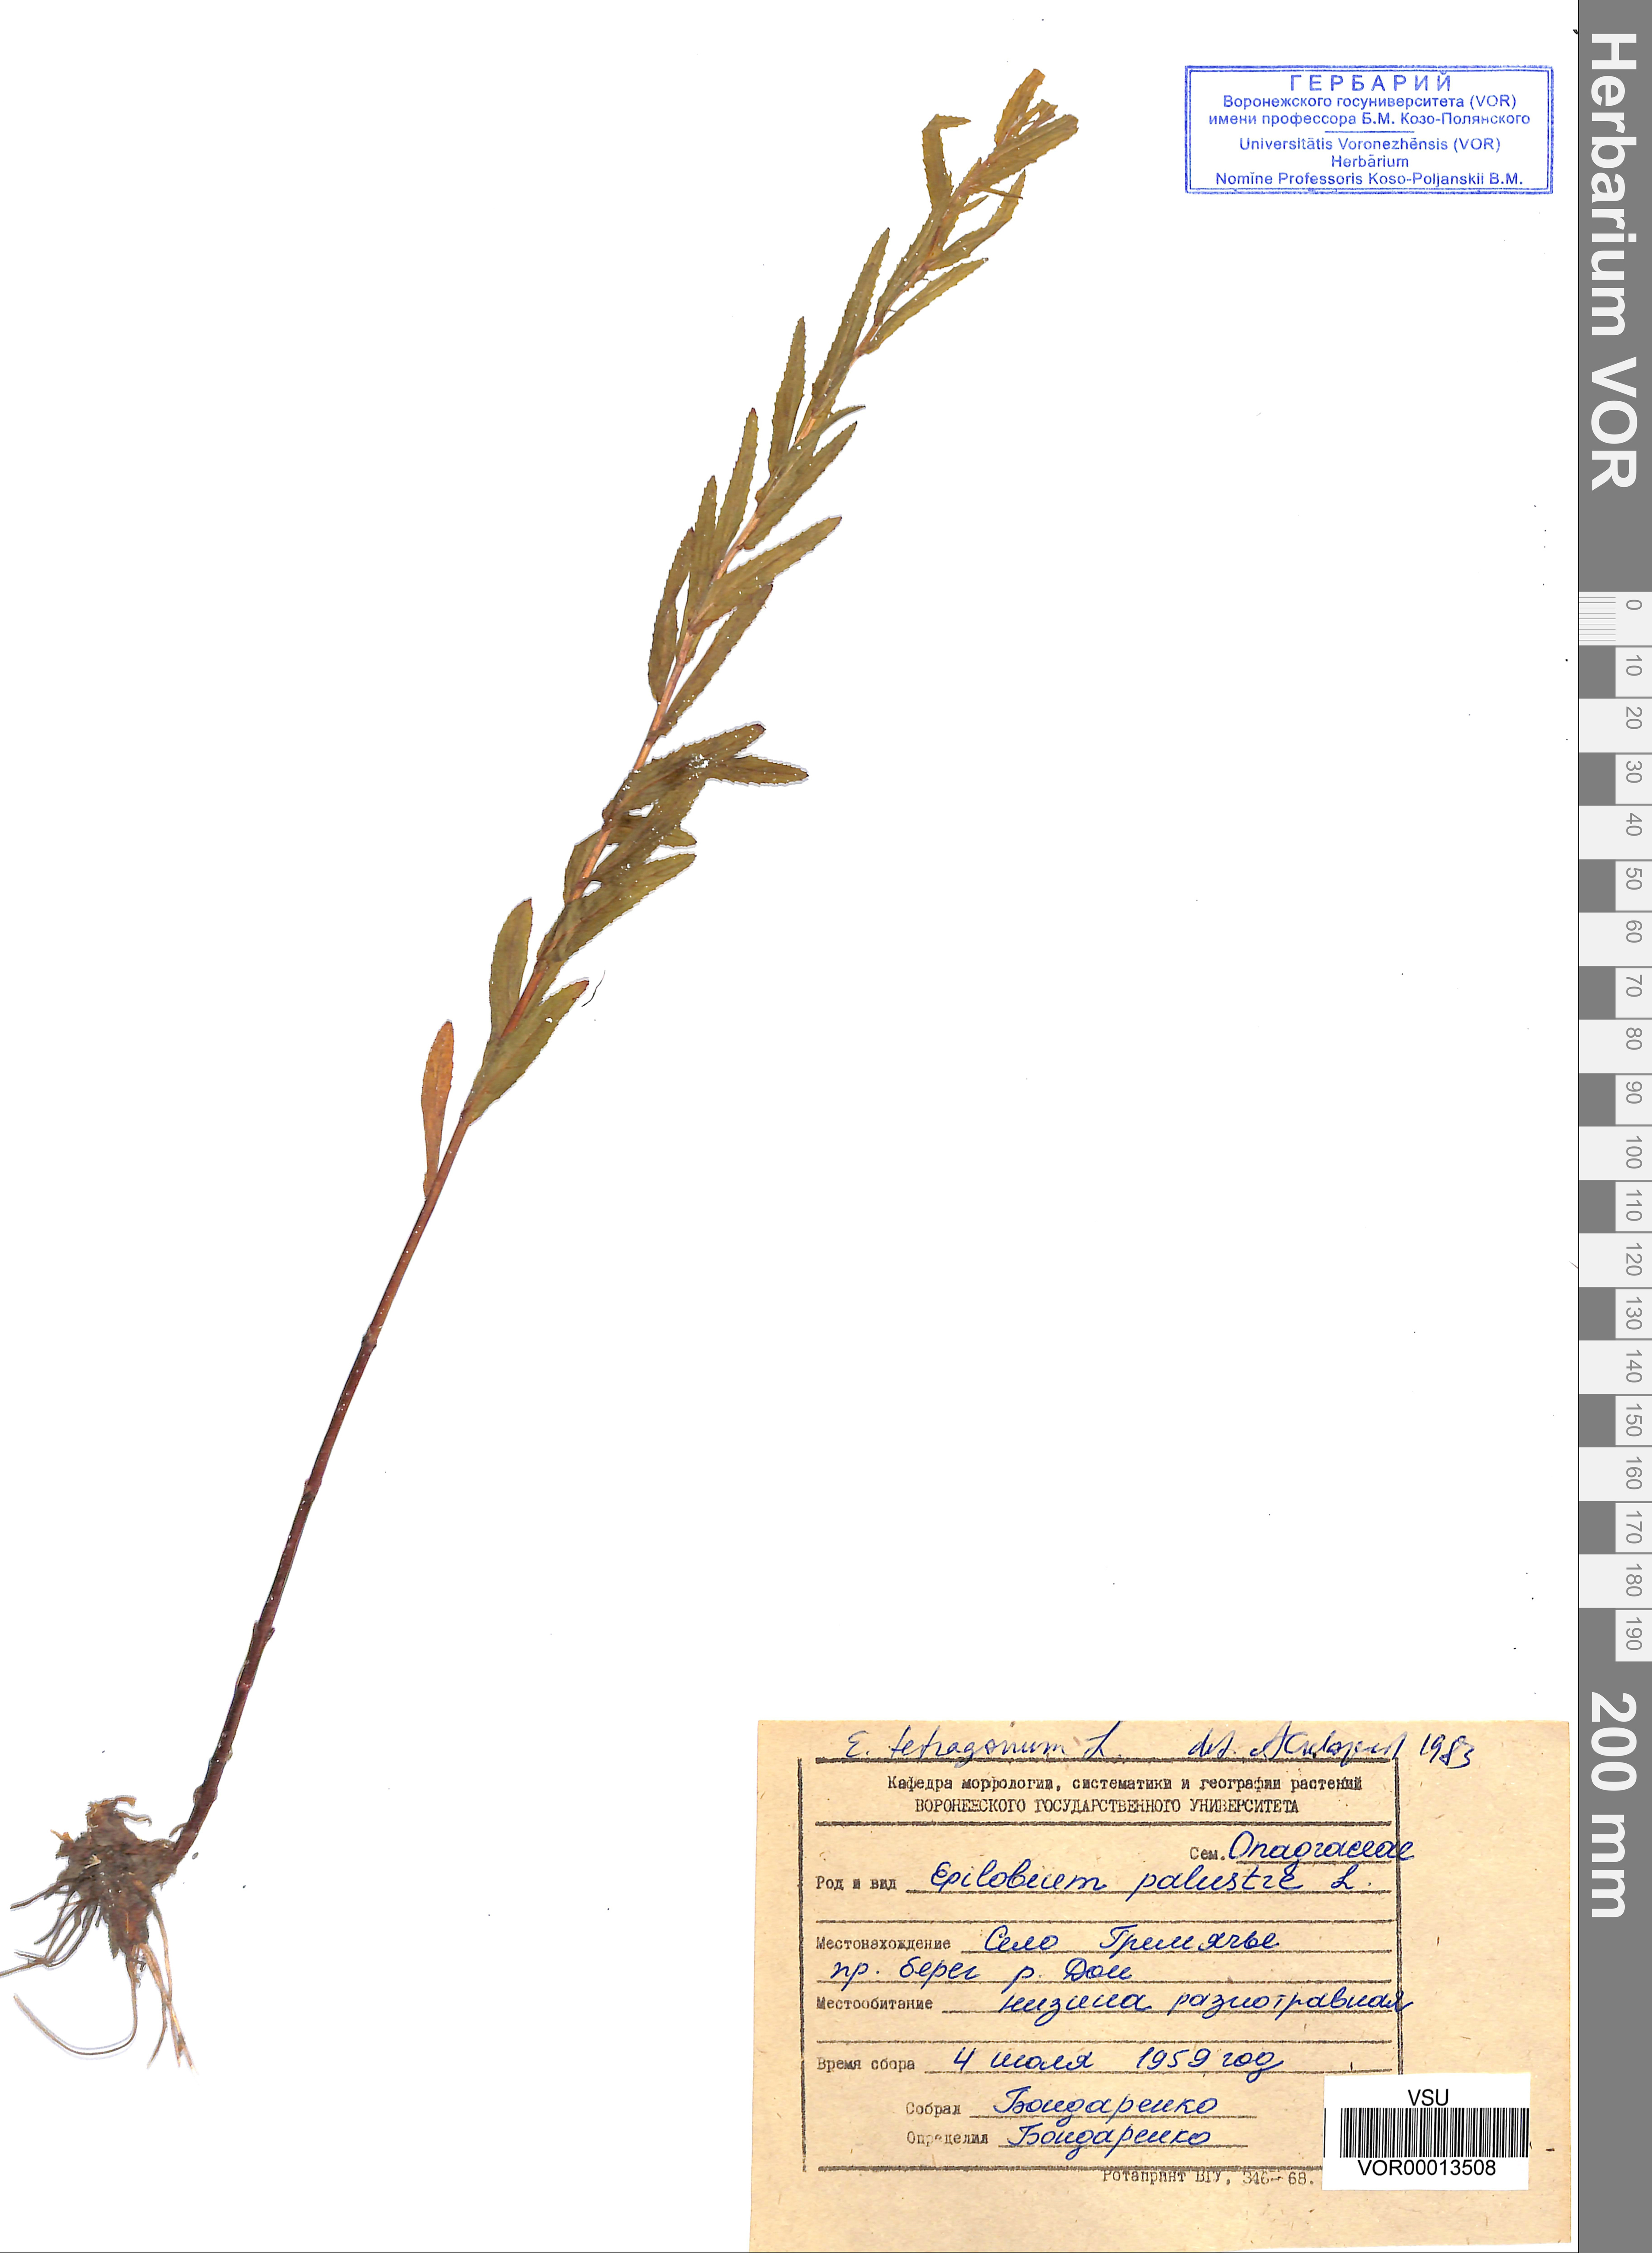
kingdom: Plantae
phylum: Tracheophyta
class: Magnoliopsida
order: Myrtales
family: Onagraceae
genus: Epilobium
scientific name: Epilobium tetragonum
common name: Square-stemmed willowherb
